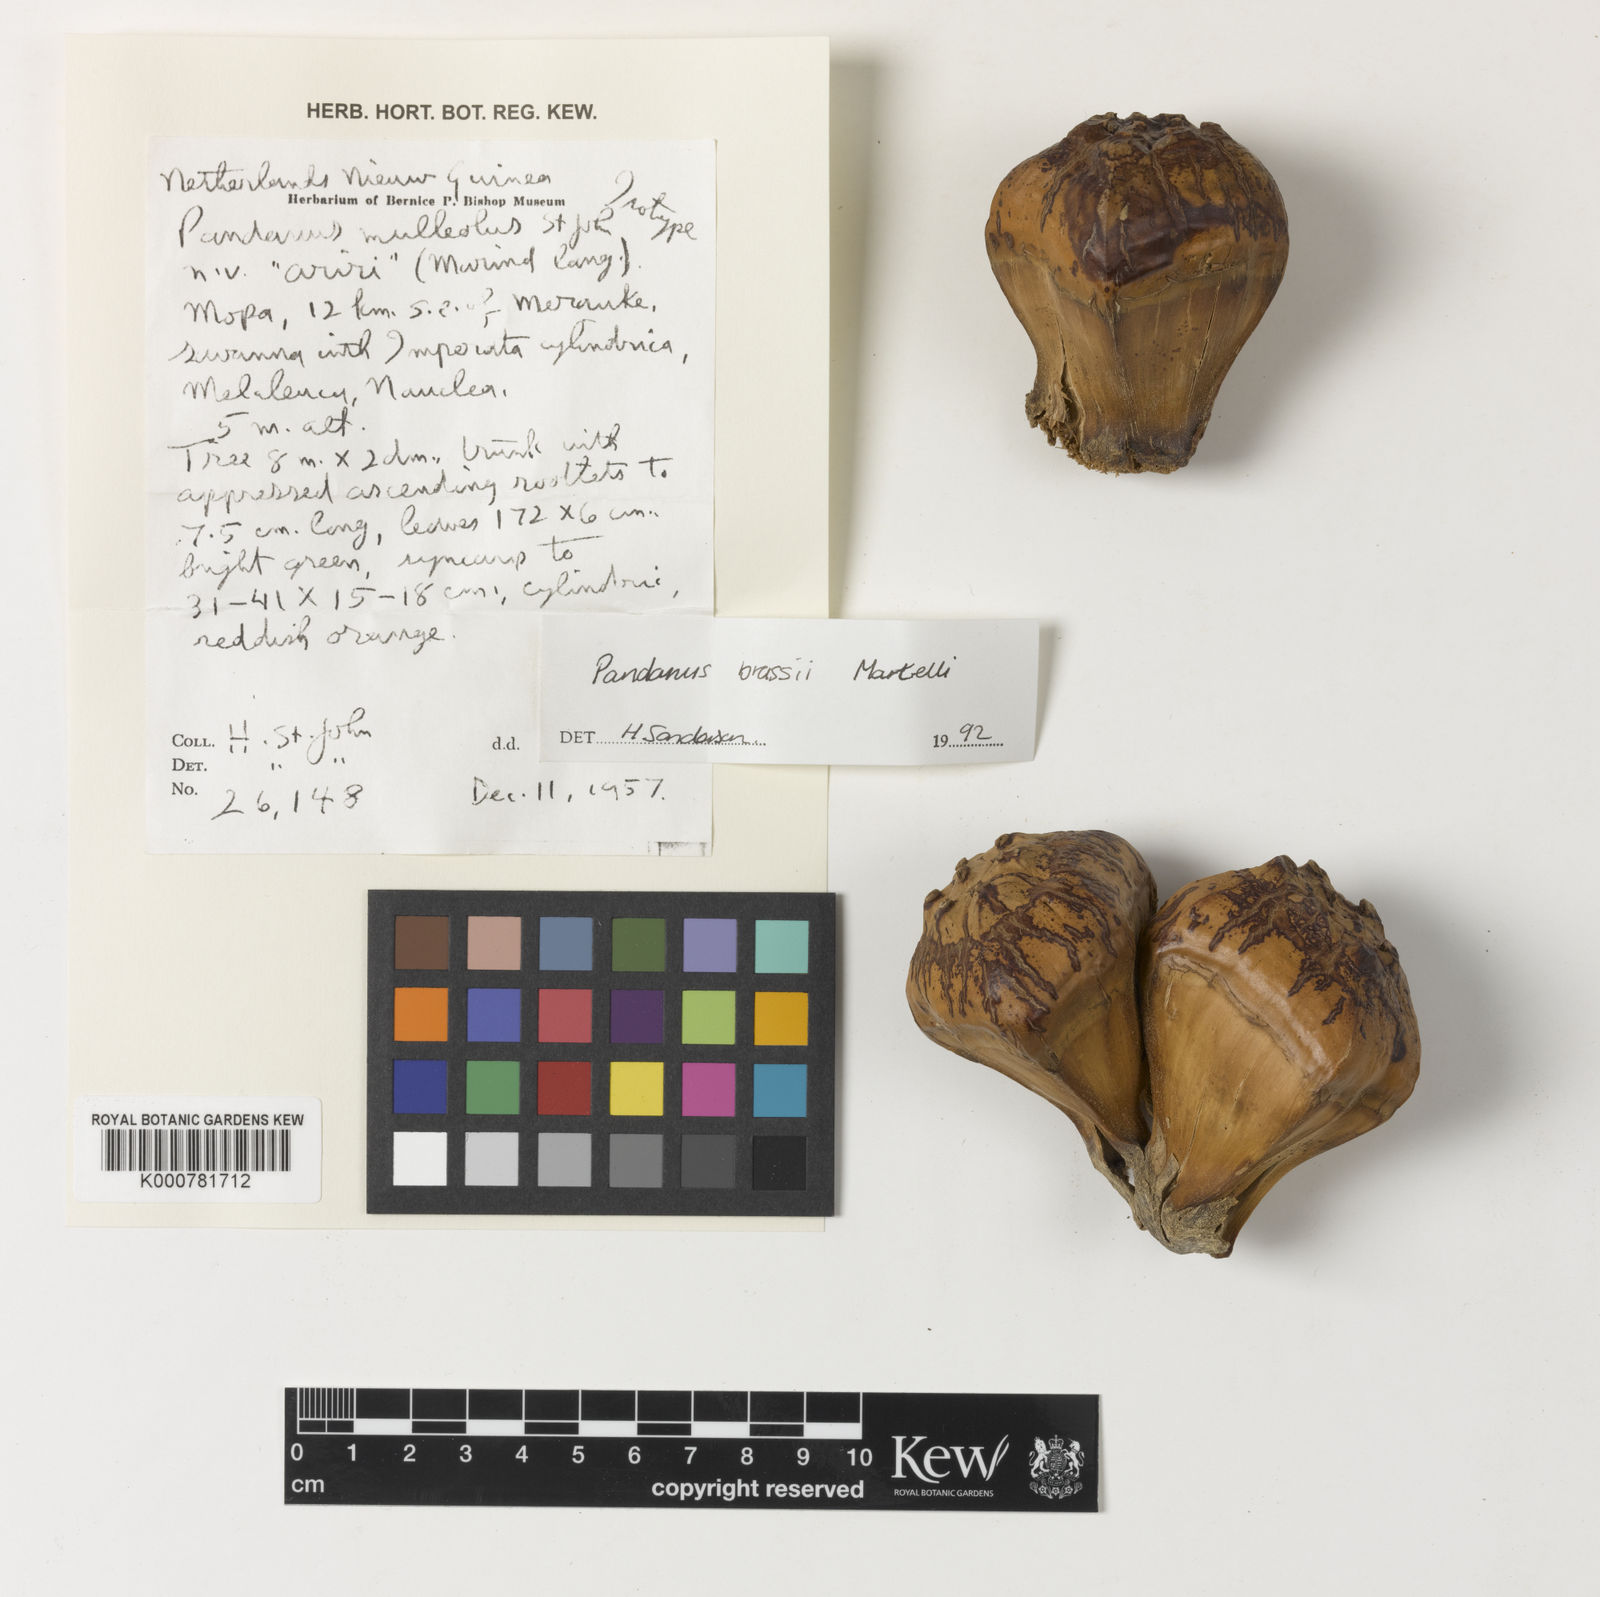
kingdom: Plantae
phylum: Tracheophyta
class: Liliopsida
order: Pandanales
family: Pandanaceae
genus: Pandanus
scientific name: Pandanus brassii
